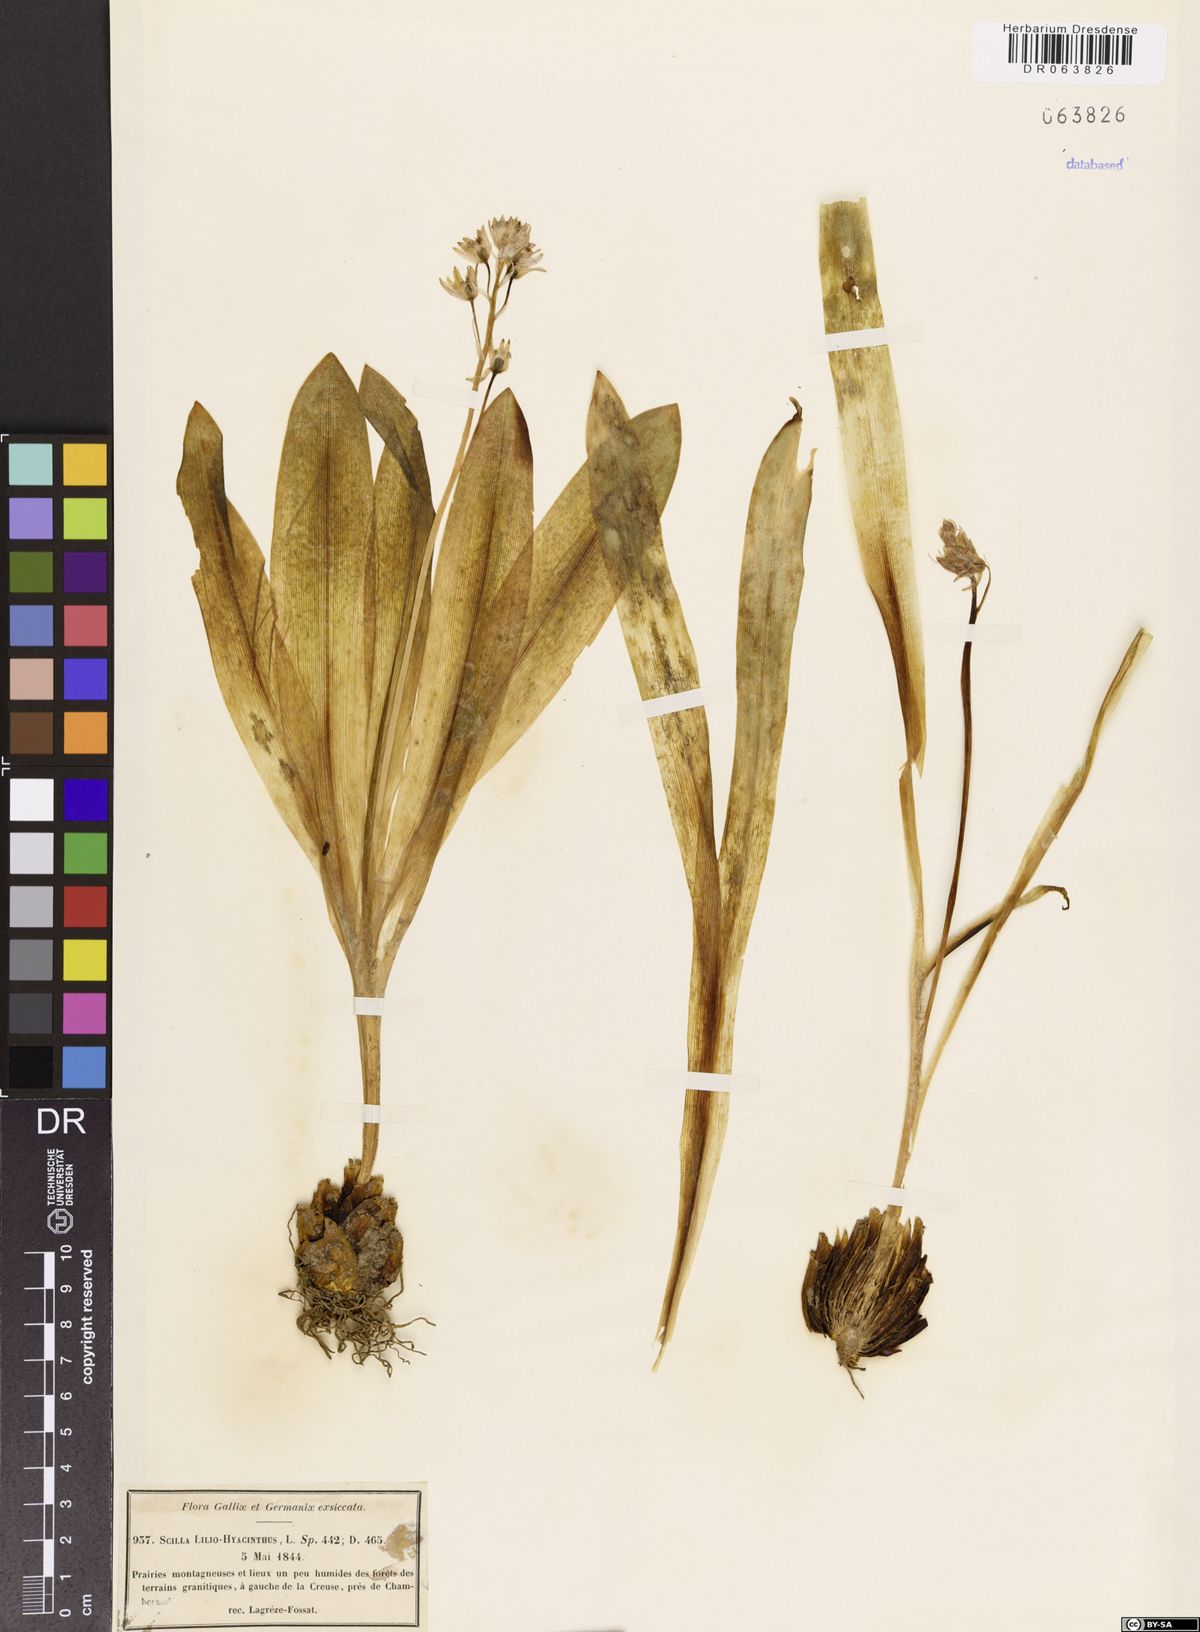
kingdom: Plantae
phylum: Tracheophyta
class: Liliopsida
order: Asparagales
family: Asparagaceae
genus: Scilla
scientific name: Scilla lilio-hyacinthus
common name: Pyrenean squill
